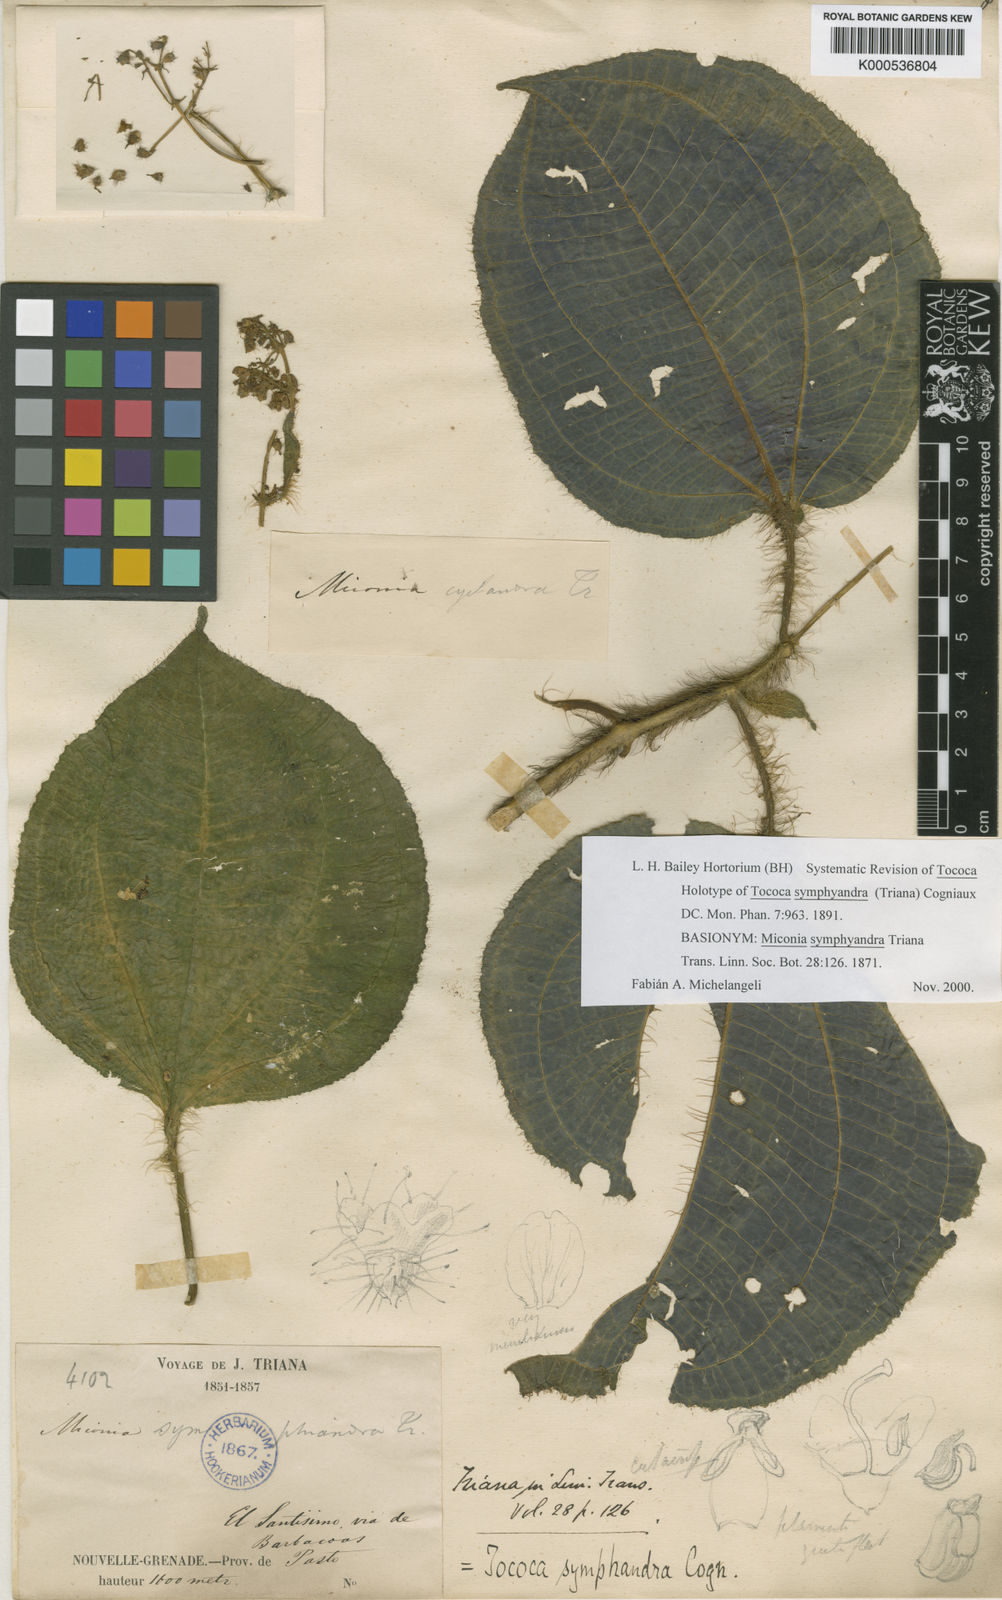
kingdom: Plantae
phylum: Tracheophyta
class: Magnoliopsida
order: Myrtales
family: Melastomataceae
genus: Miconia
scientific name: Miconia symphyandra
